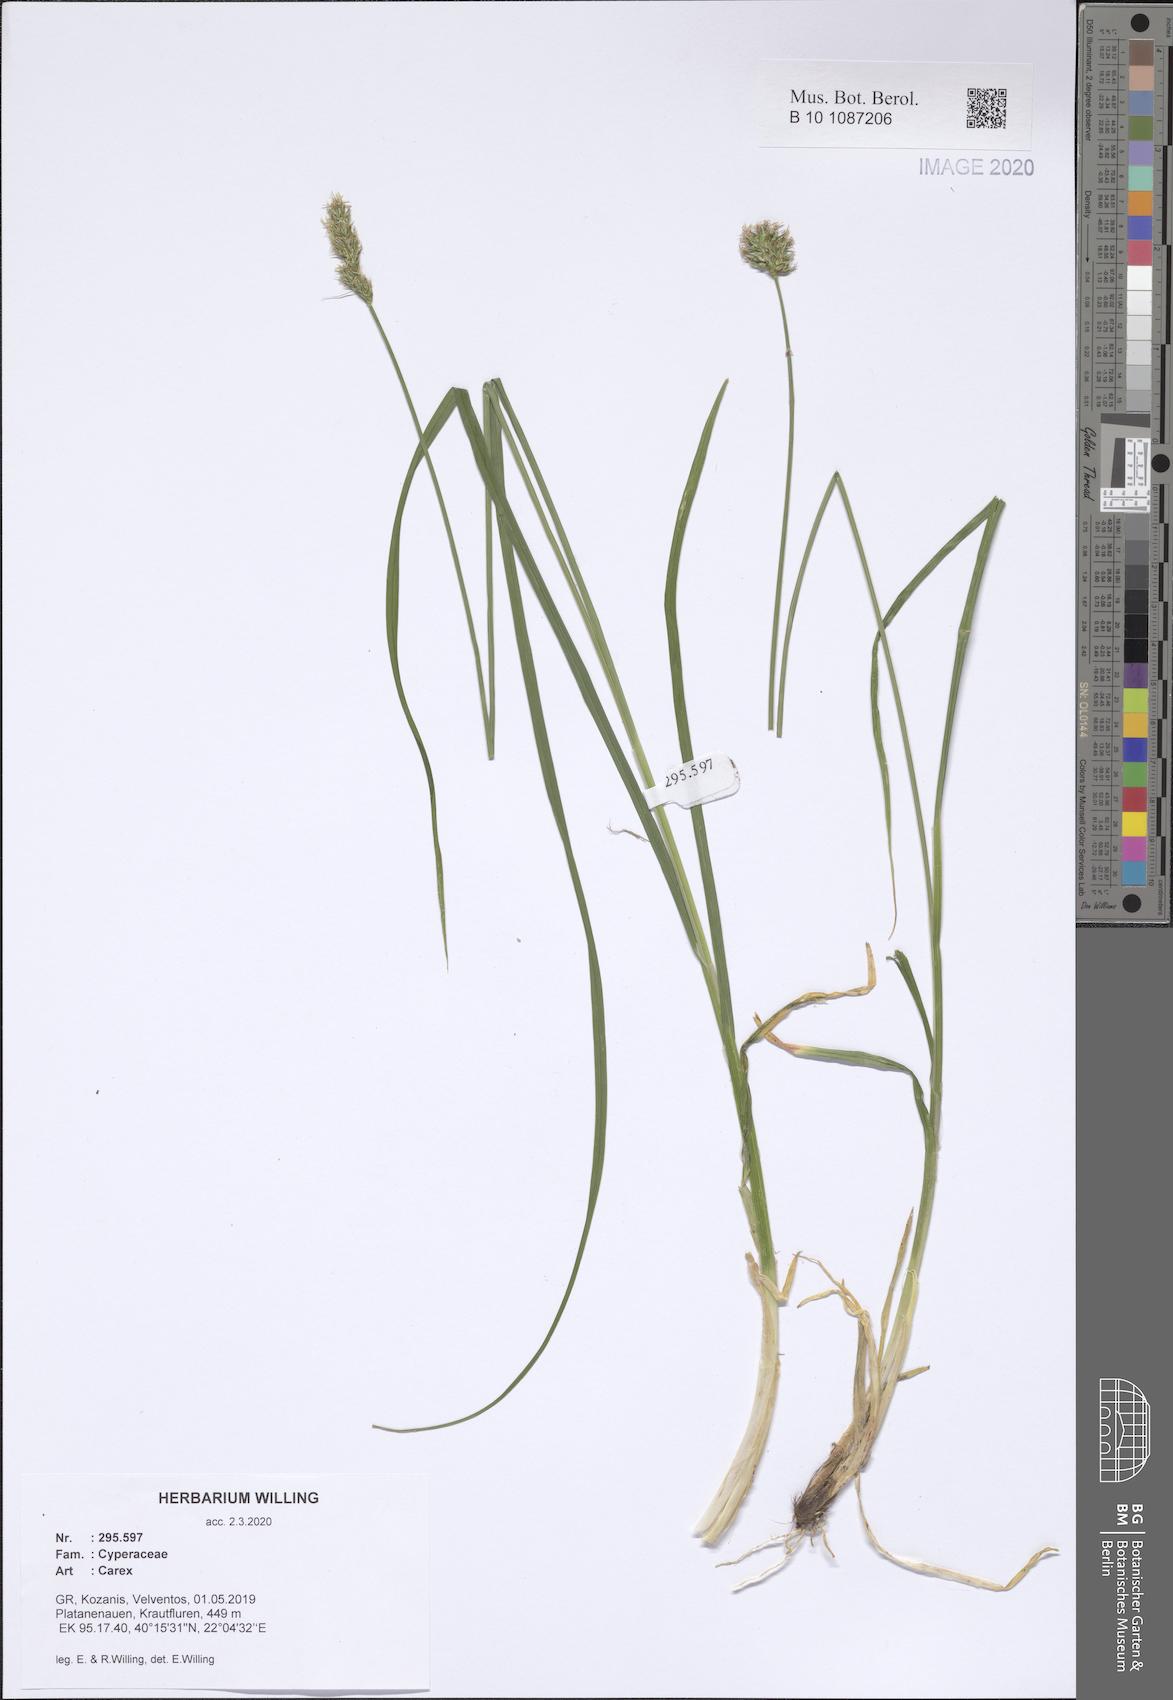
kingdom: Plantae
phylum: Tracheophyta
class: Liliopsida
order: Poales
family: Cyperaceae
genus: Carex
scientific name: Carex
